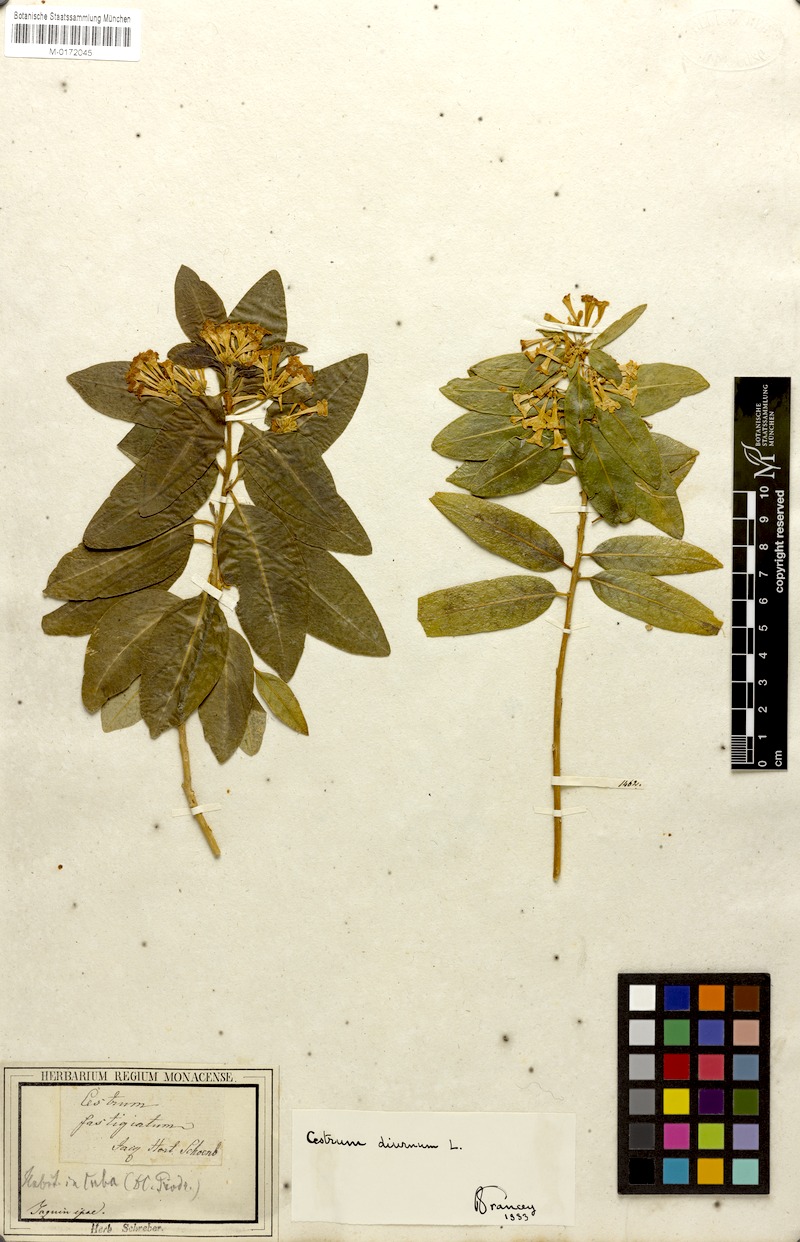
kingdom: Plantae
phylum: Tracheophyta
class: Magnoliopsida
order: Solanales
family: Solanaceae
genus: Cestrum
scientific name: Cestrum diurnum
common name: Day jessamine
